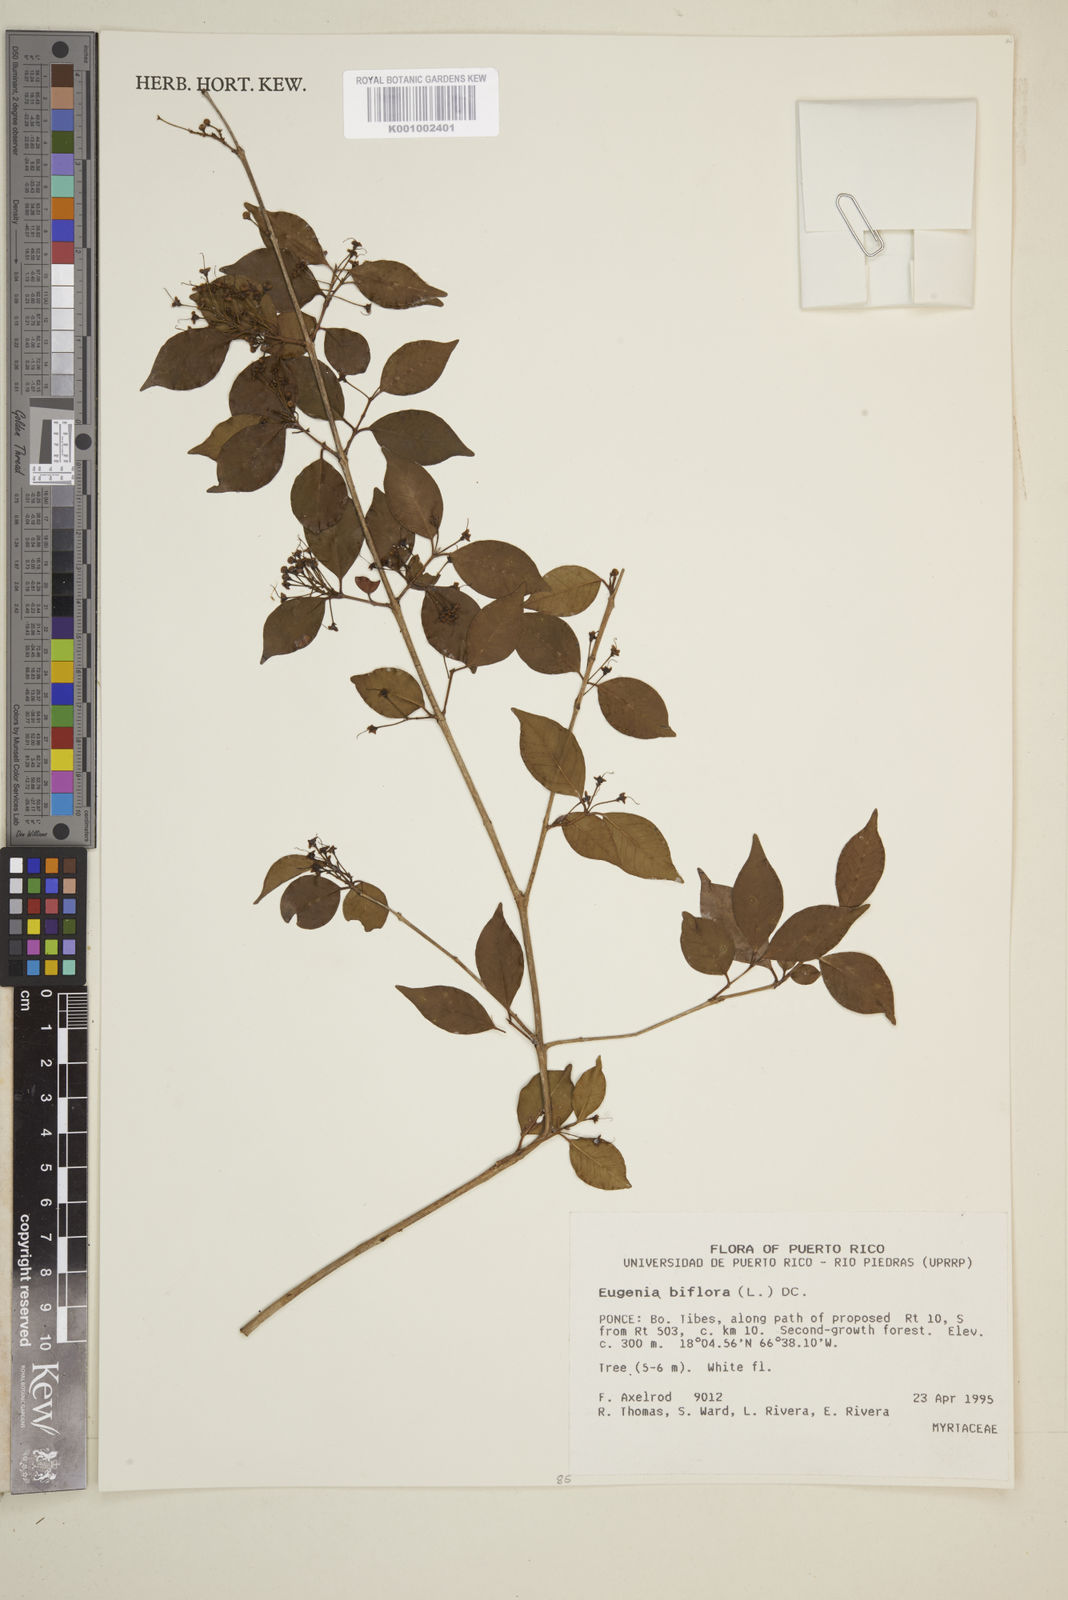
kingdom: Plantae
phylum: Tracheophyta
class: Magnoliopsida
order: Myrtales
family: Myrtaceae
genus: Eugenia
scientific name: Eugenia biflora
